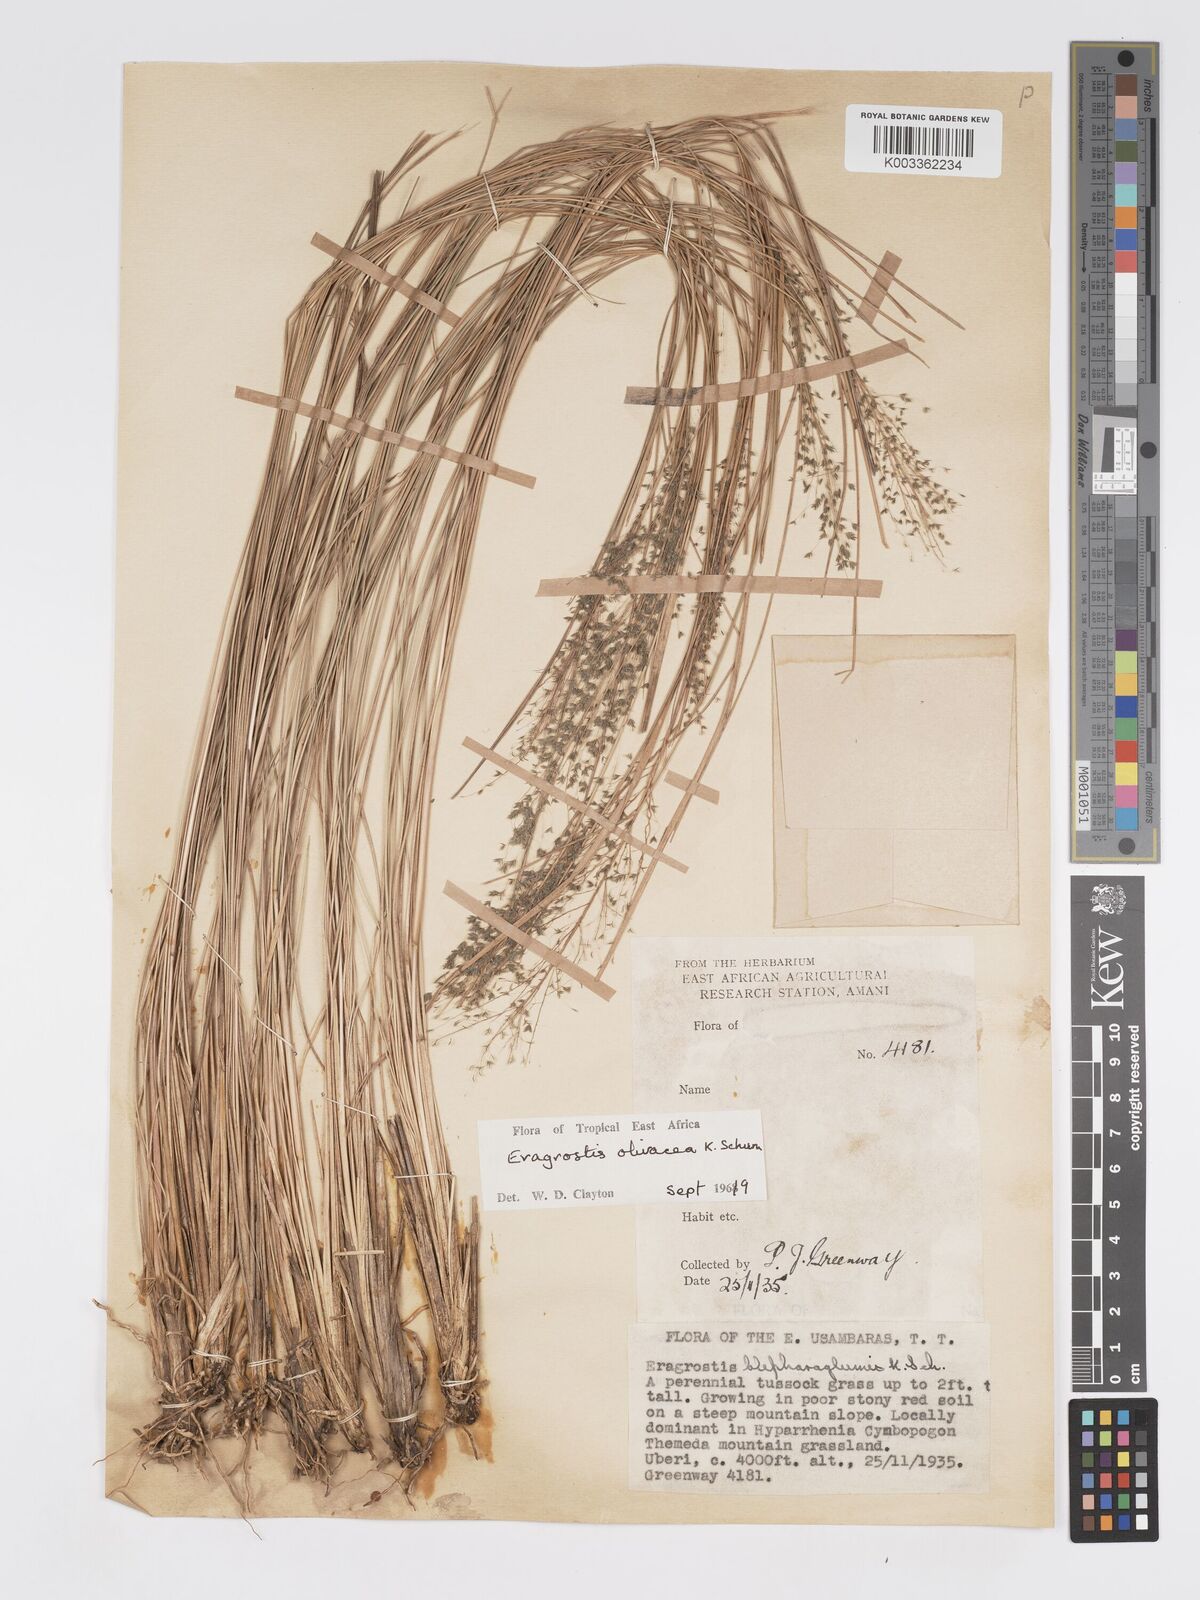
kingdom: Plantae
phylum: Tracheophyta
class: Liliopsida
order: Poales
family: Poaceae
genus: Eragrostis
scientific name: Eragrostis olivacea
